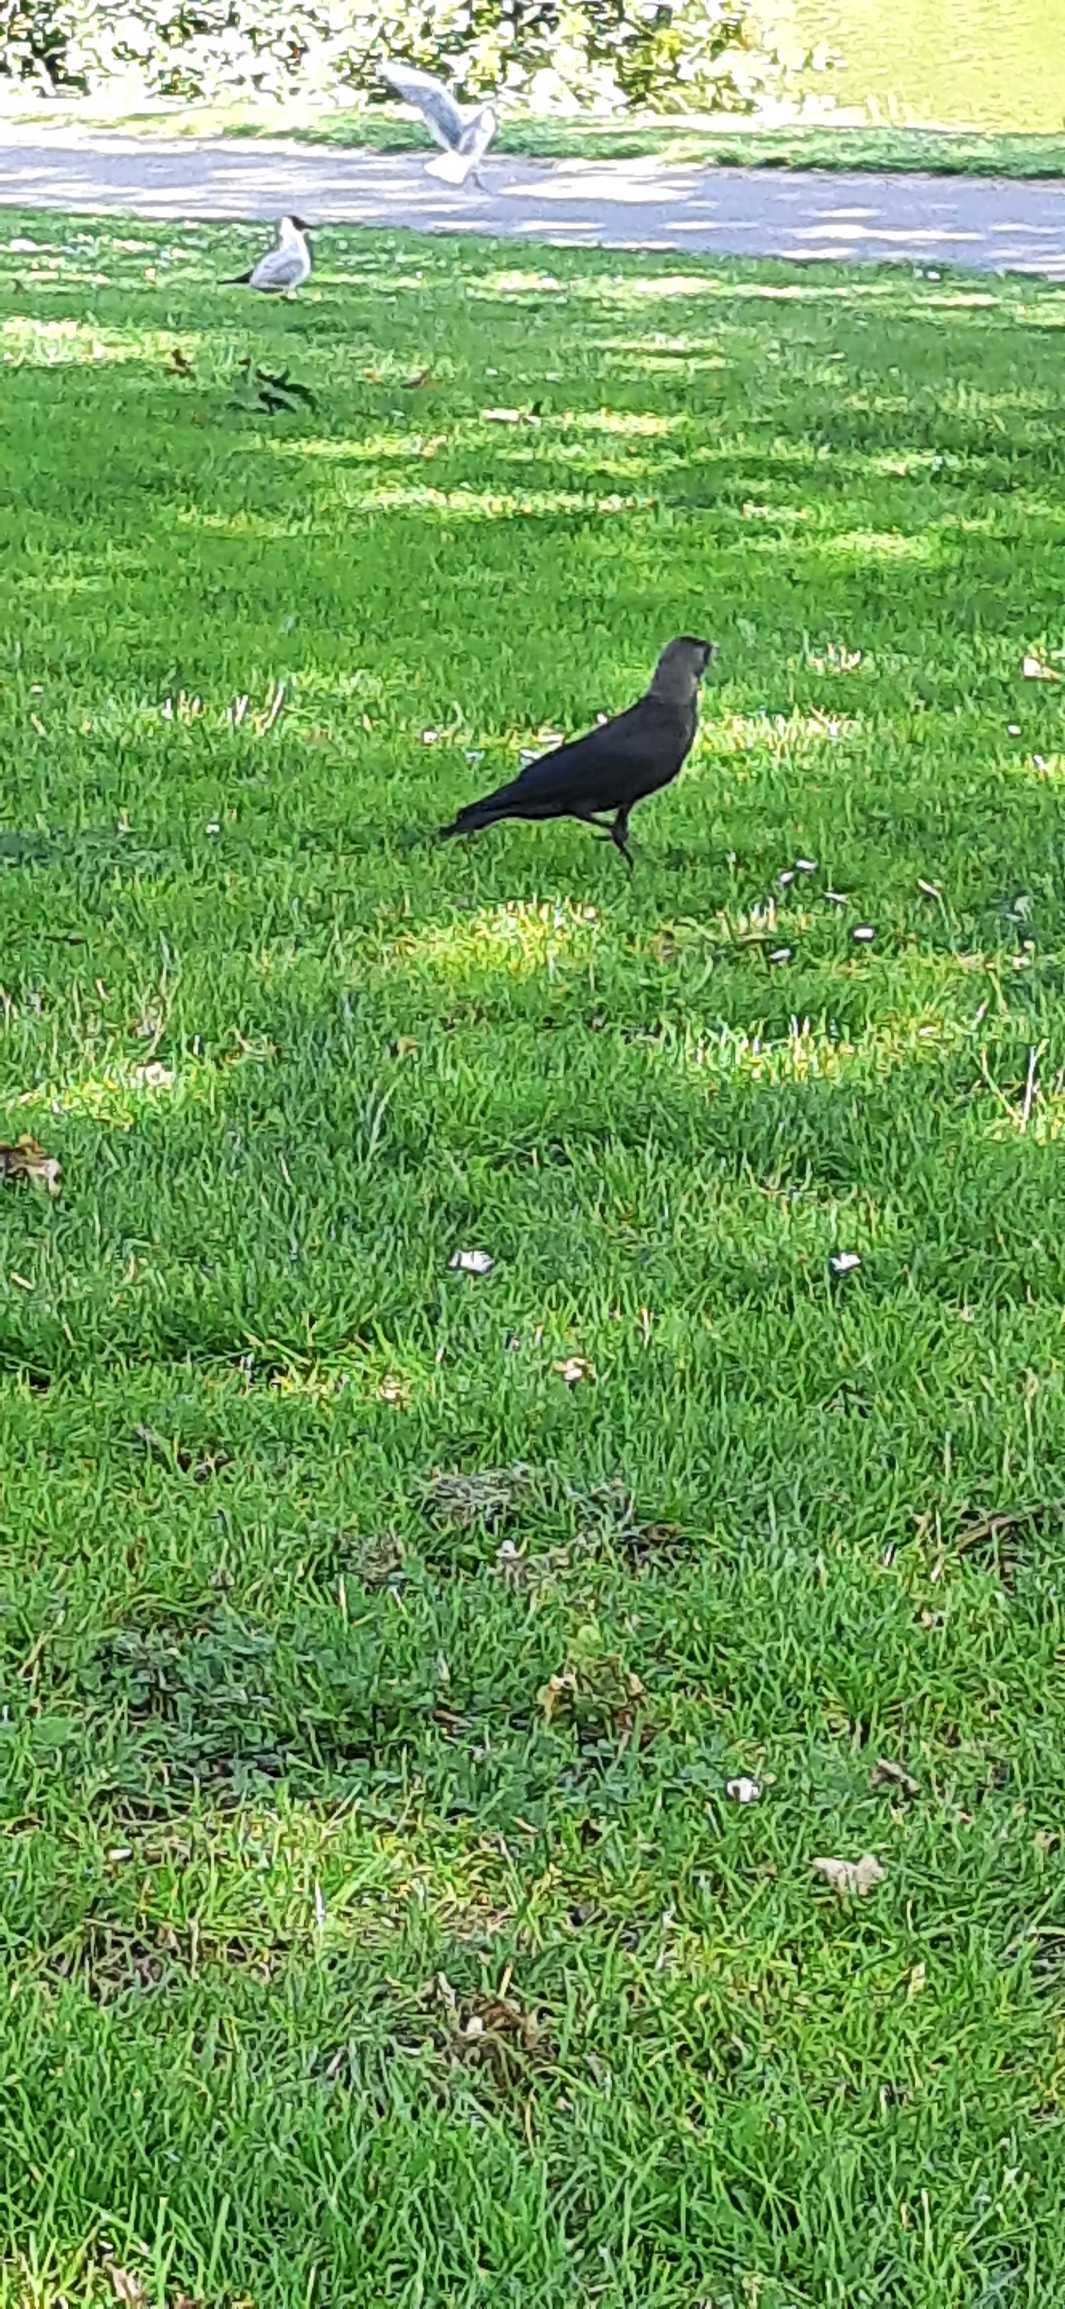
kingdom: Animalia
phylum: Chordata
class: Aves
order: Passeriformes
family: Corvidae
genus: Coloeus
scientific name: Coloeus monedula
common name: Allike
